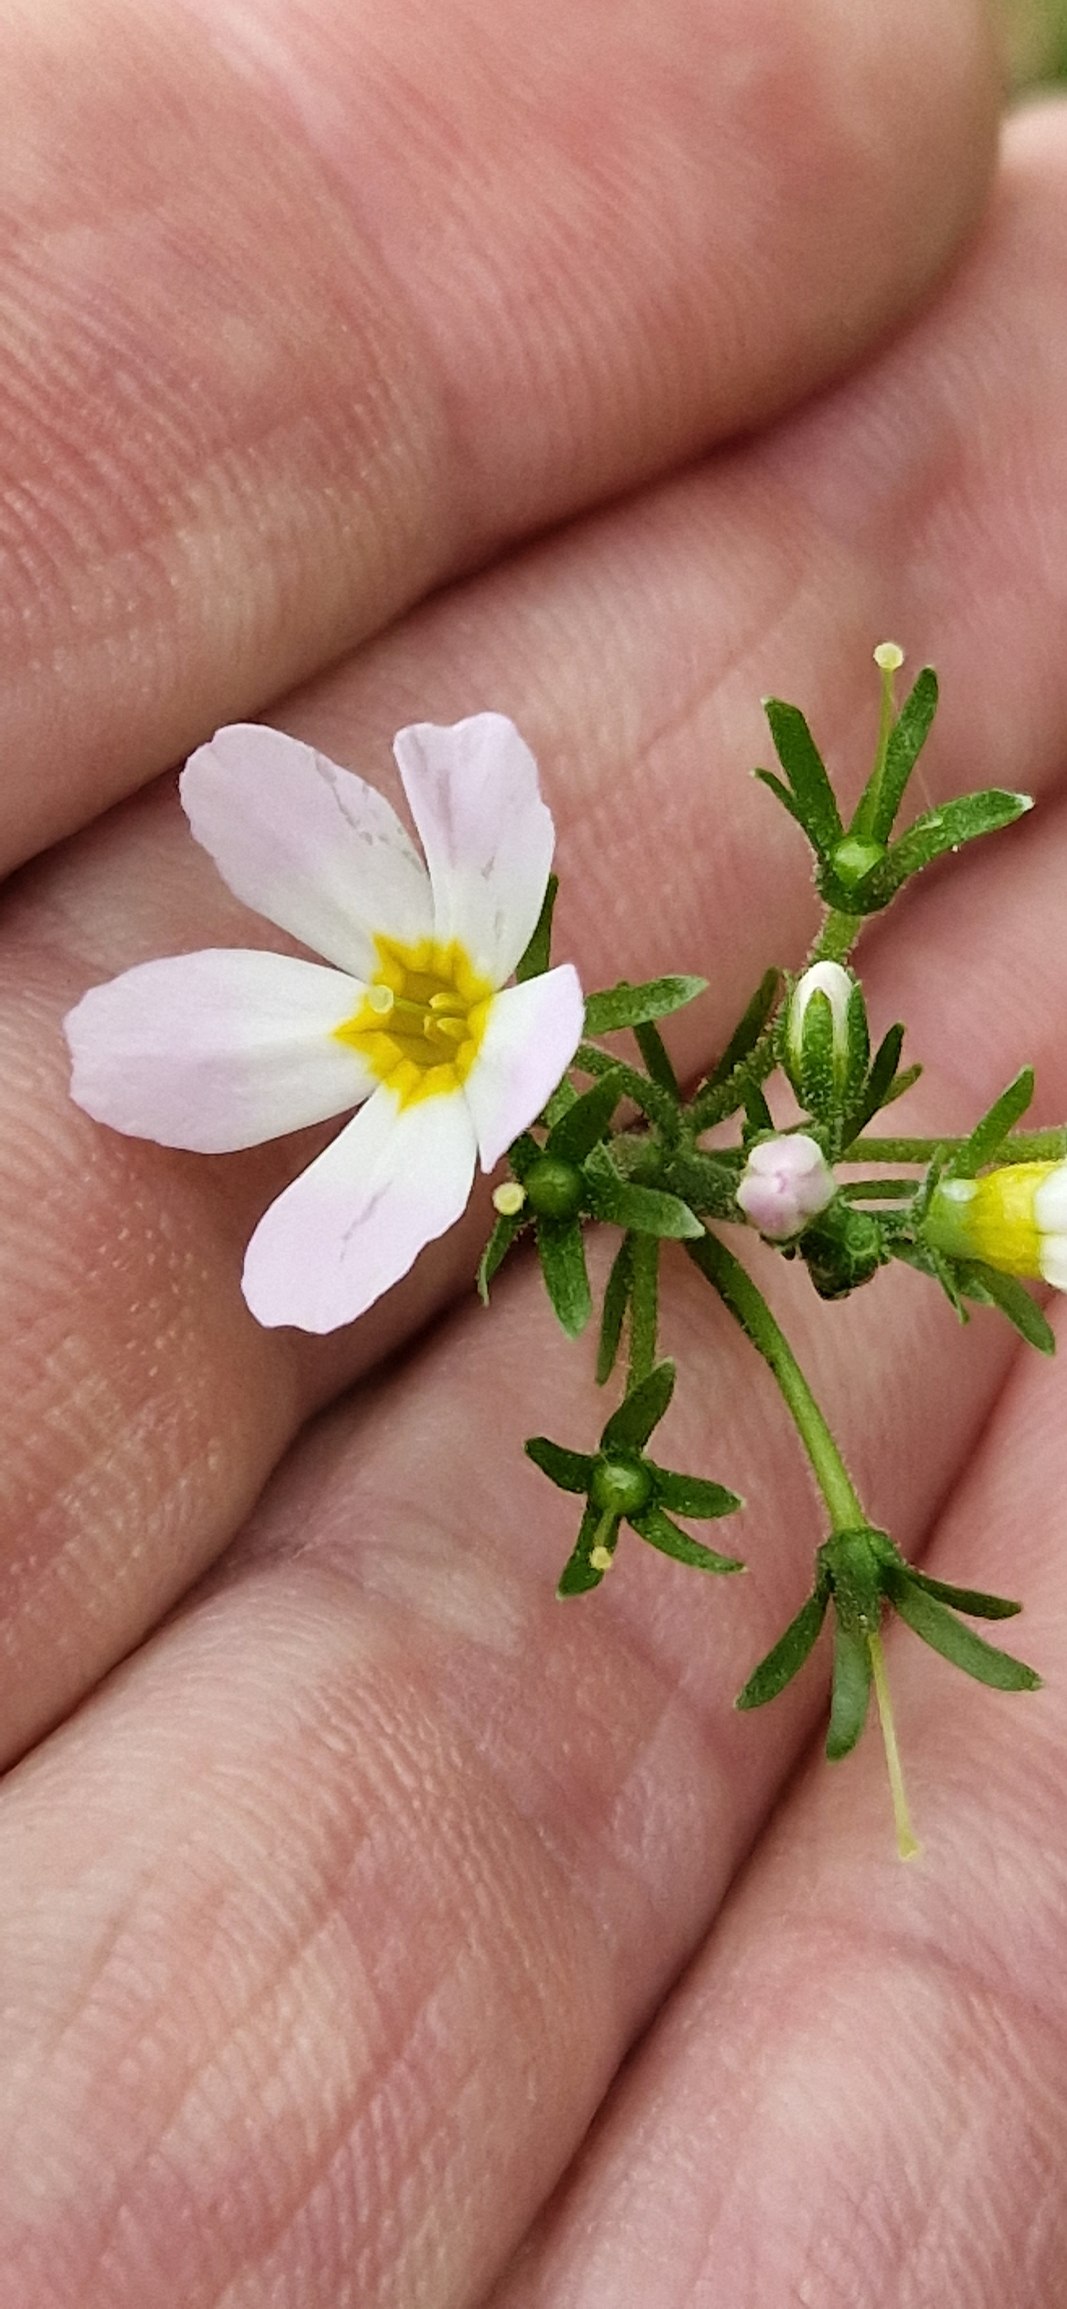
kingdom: Plantae
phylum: Tracheophyta
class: Magnoliopsida
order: Ericales
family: Primulaceae
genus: Hottonia
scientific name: Hottonia palustris
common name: Vandrøllike
